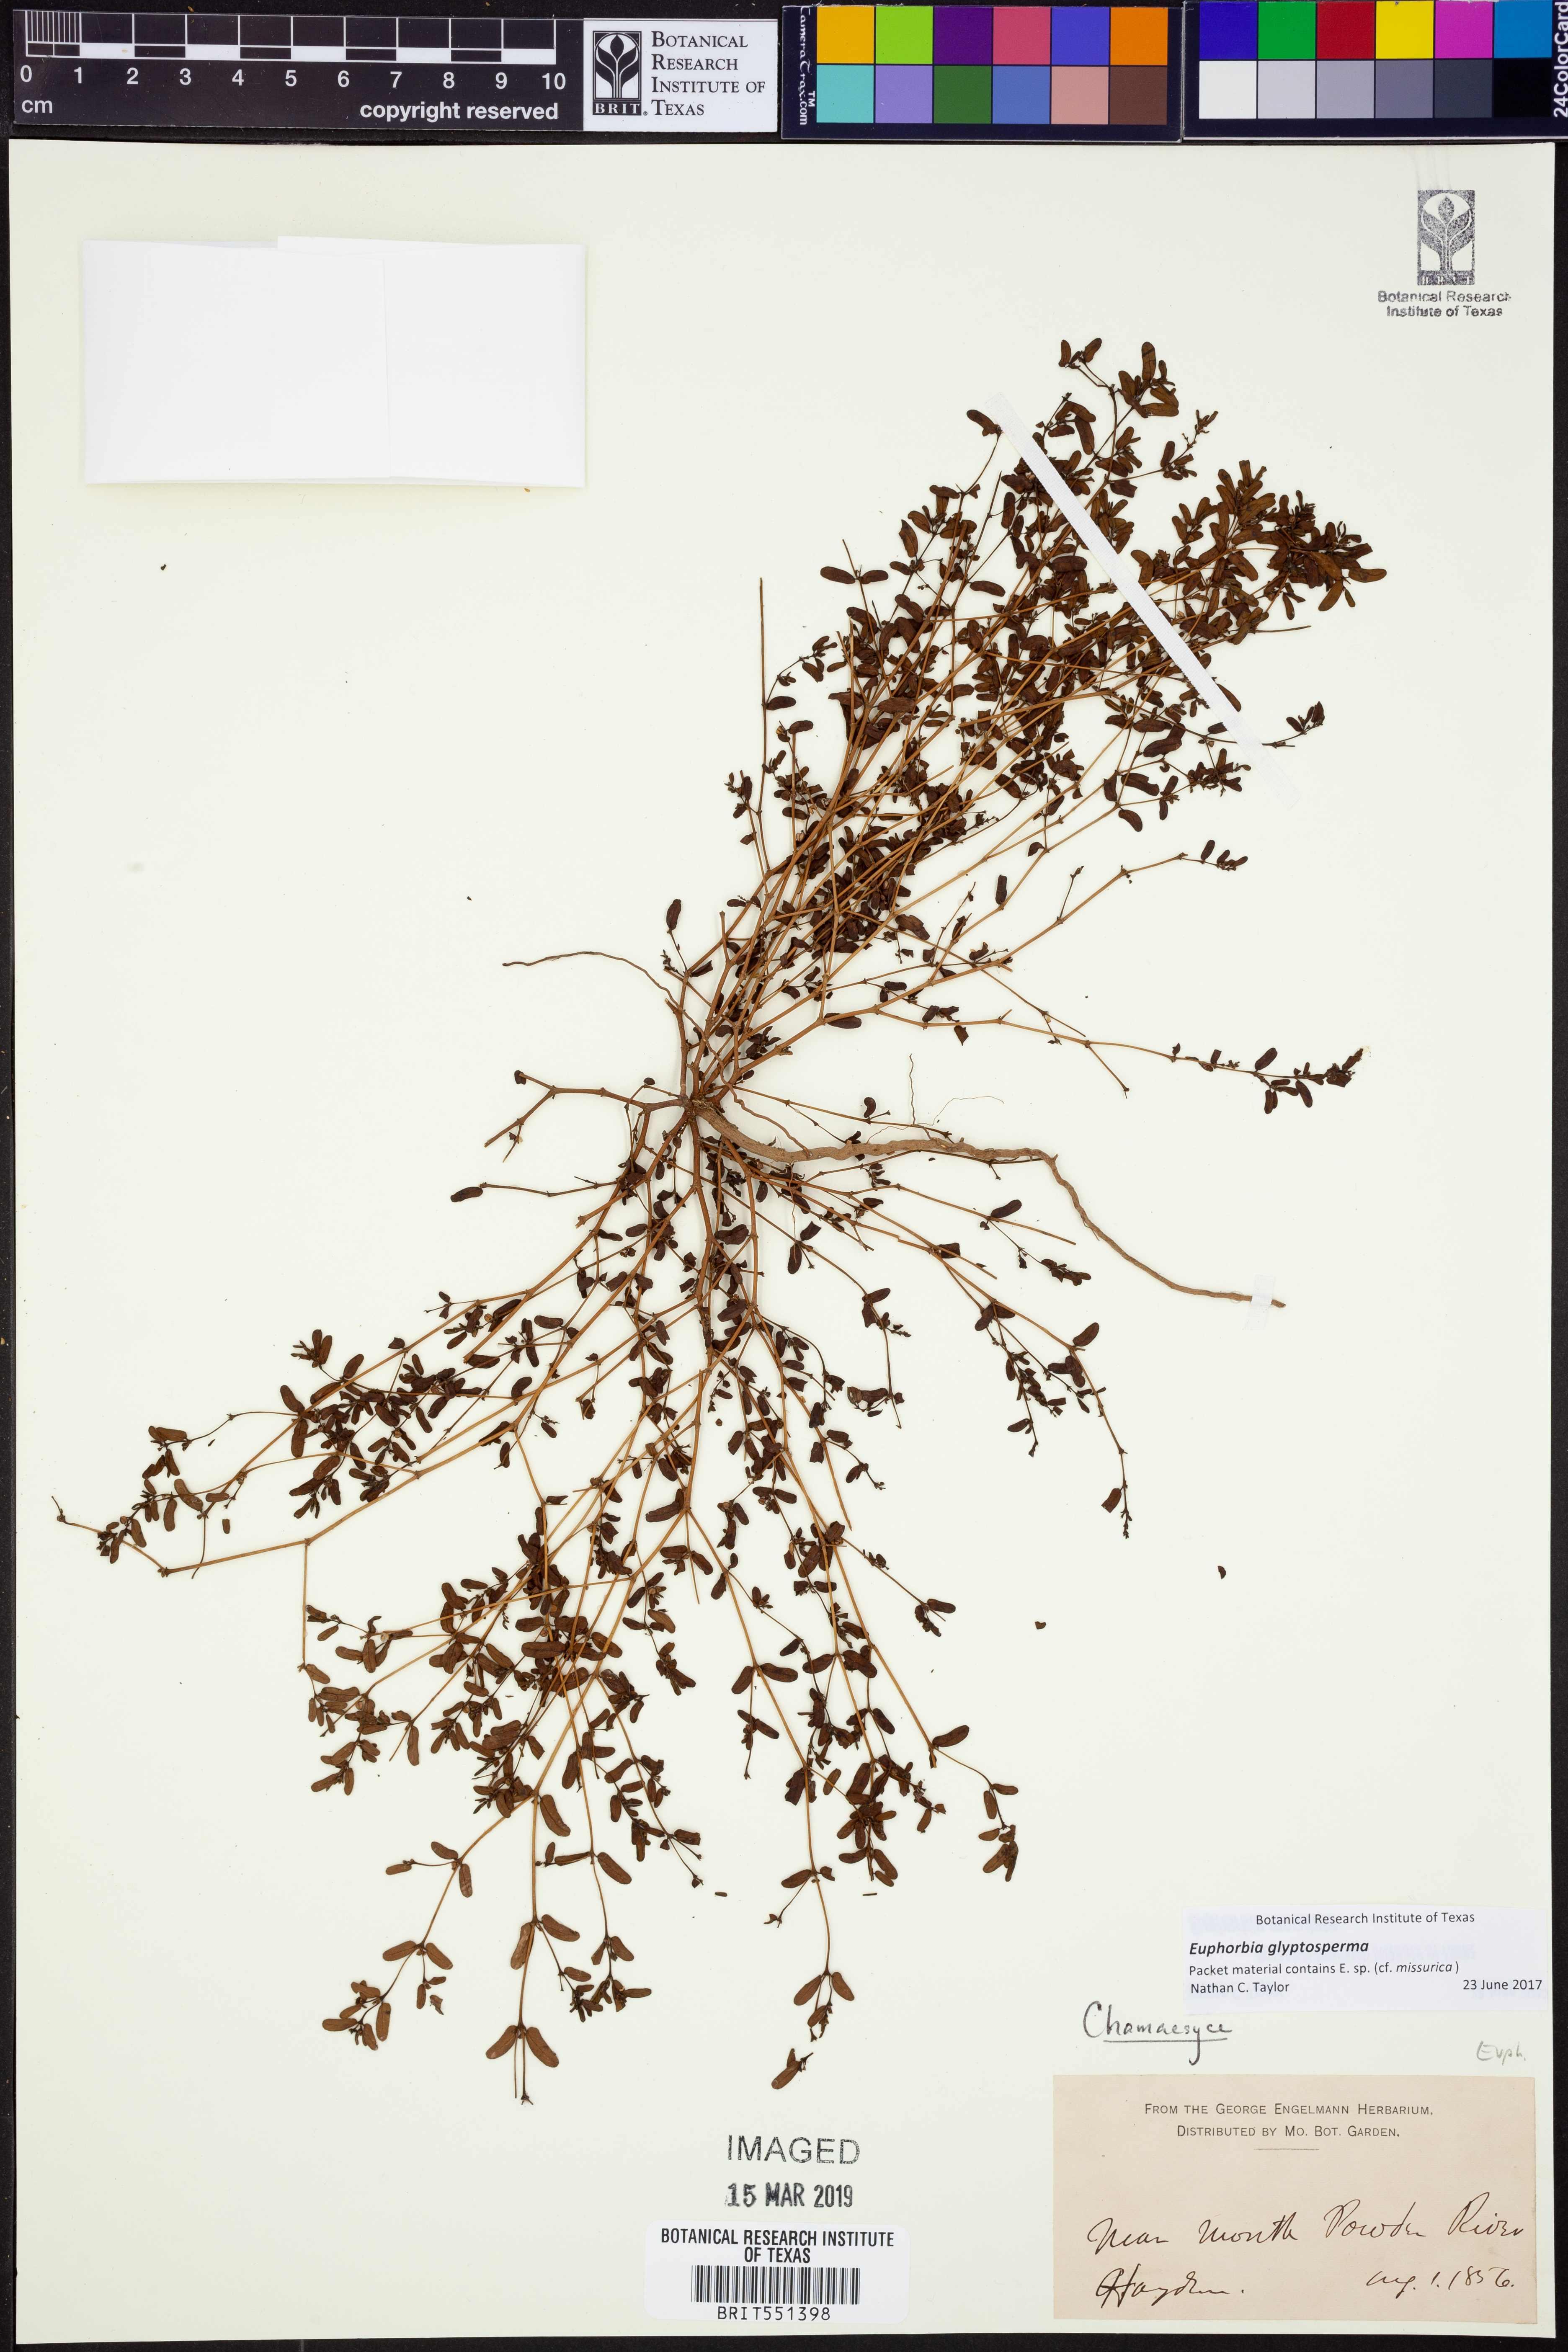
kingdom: Plantae
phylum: Tracheophyta
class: Magnoliopsida
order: Malpighiales
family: Euphorbiaceae
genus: Euphorbia
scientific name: Euphorbia glyptosperma
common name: Corrugate-seeded spurge
